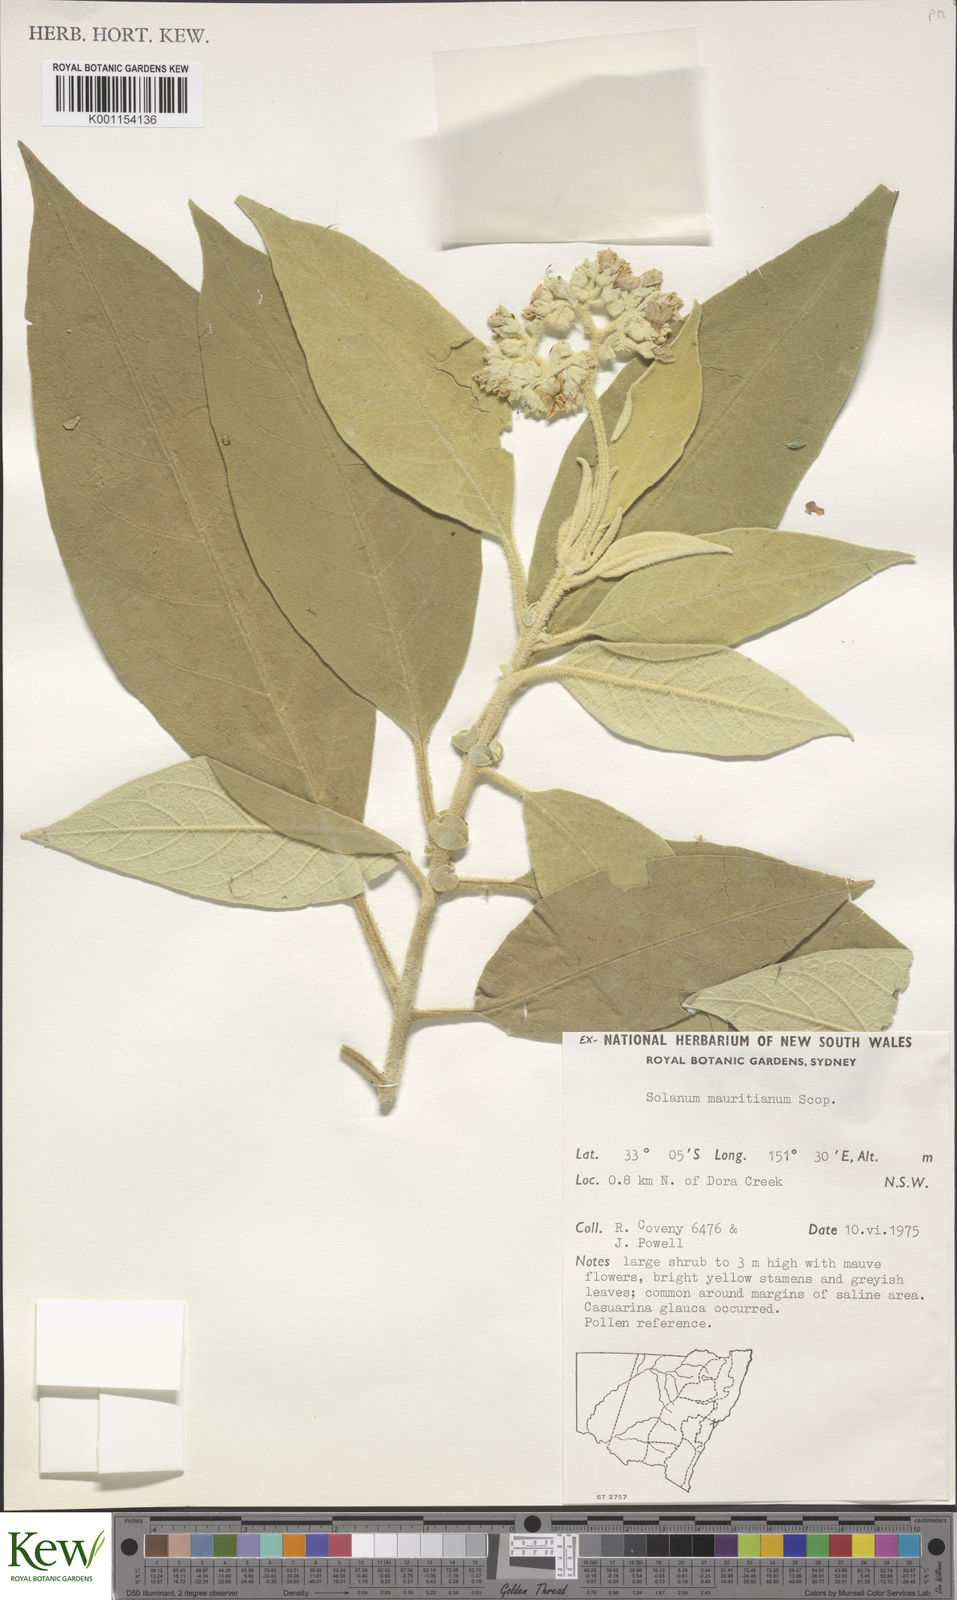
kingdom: Plantae
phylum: Tracheophyta
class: Magnoliopsida
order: Solanales
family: Solanaceae
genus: Solanum
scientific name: Solanum mauritianum
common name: Earleaf nightshade
